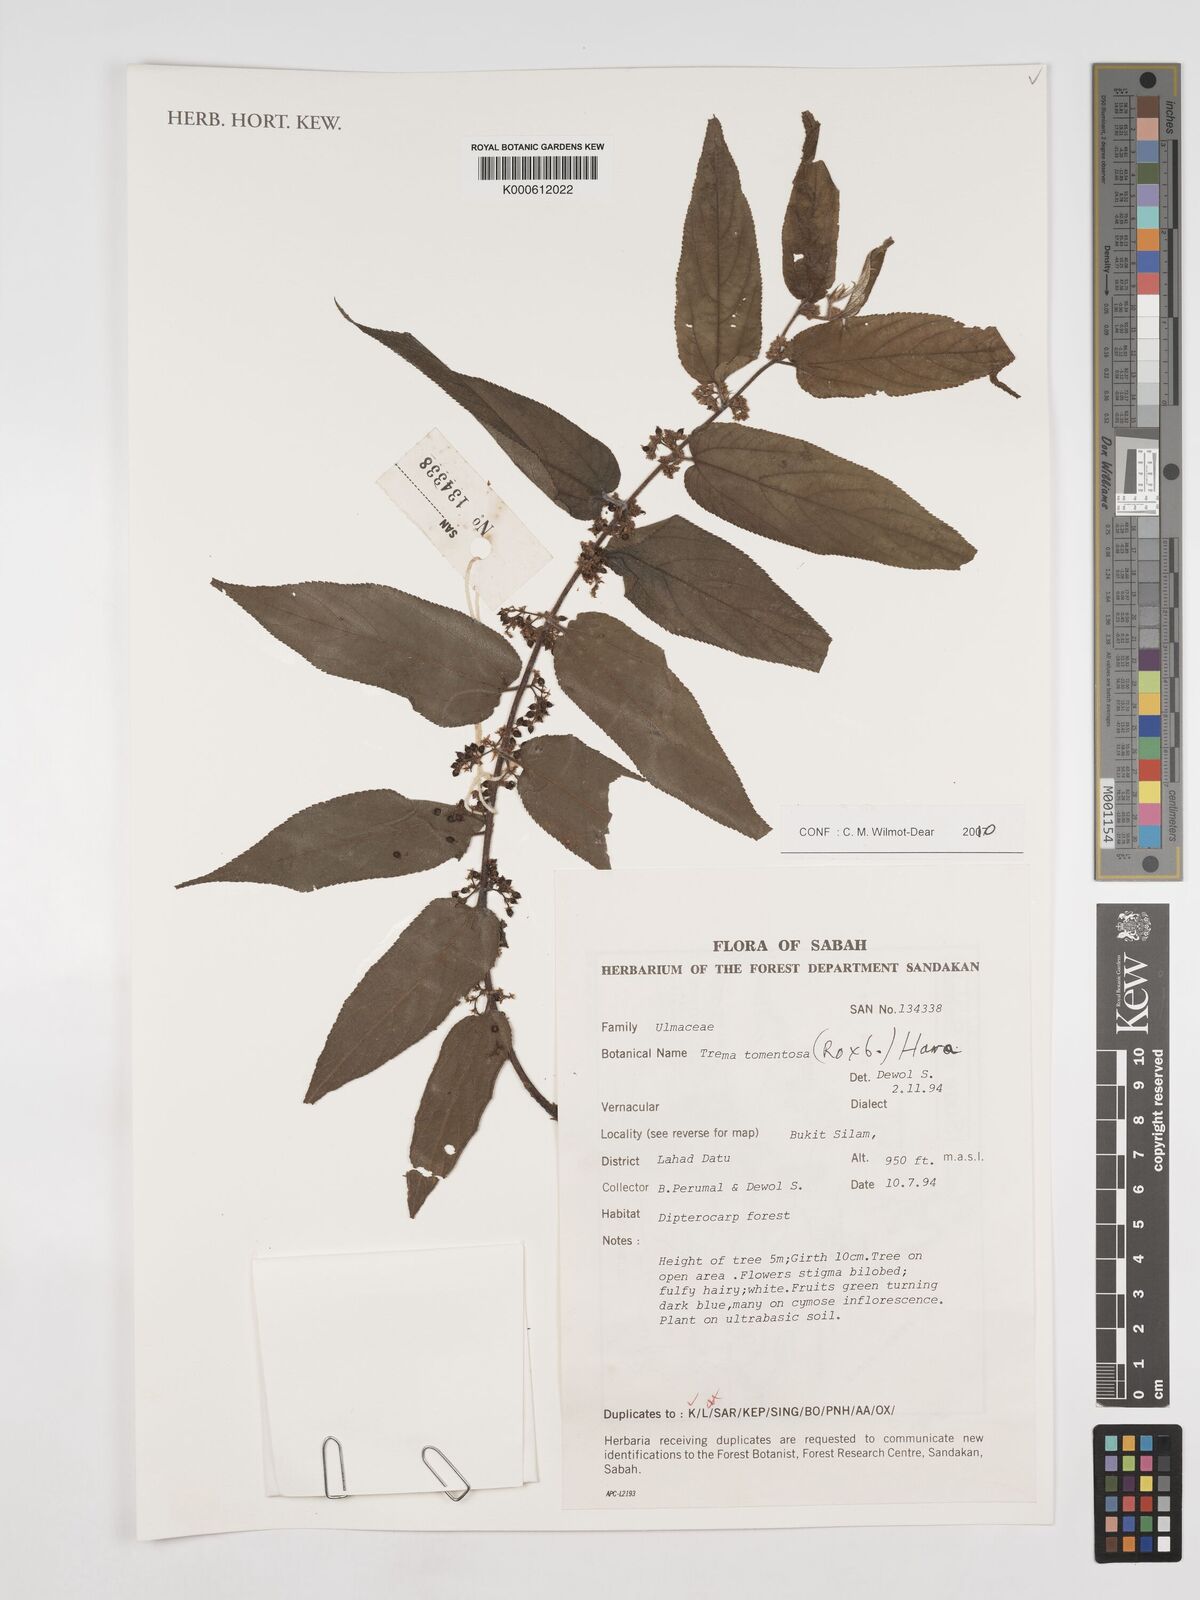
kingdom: Plantae
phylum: Tracheophyta
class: Magnoliopsida
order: Rosales
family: Cannabaceae
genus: Trema
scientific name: Trema tomentosum
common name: Peach-leaf-poisonbush
